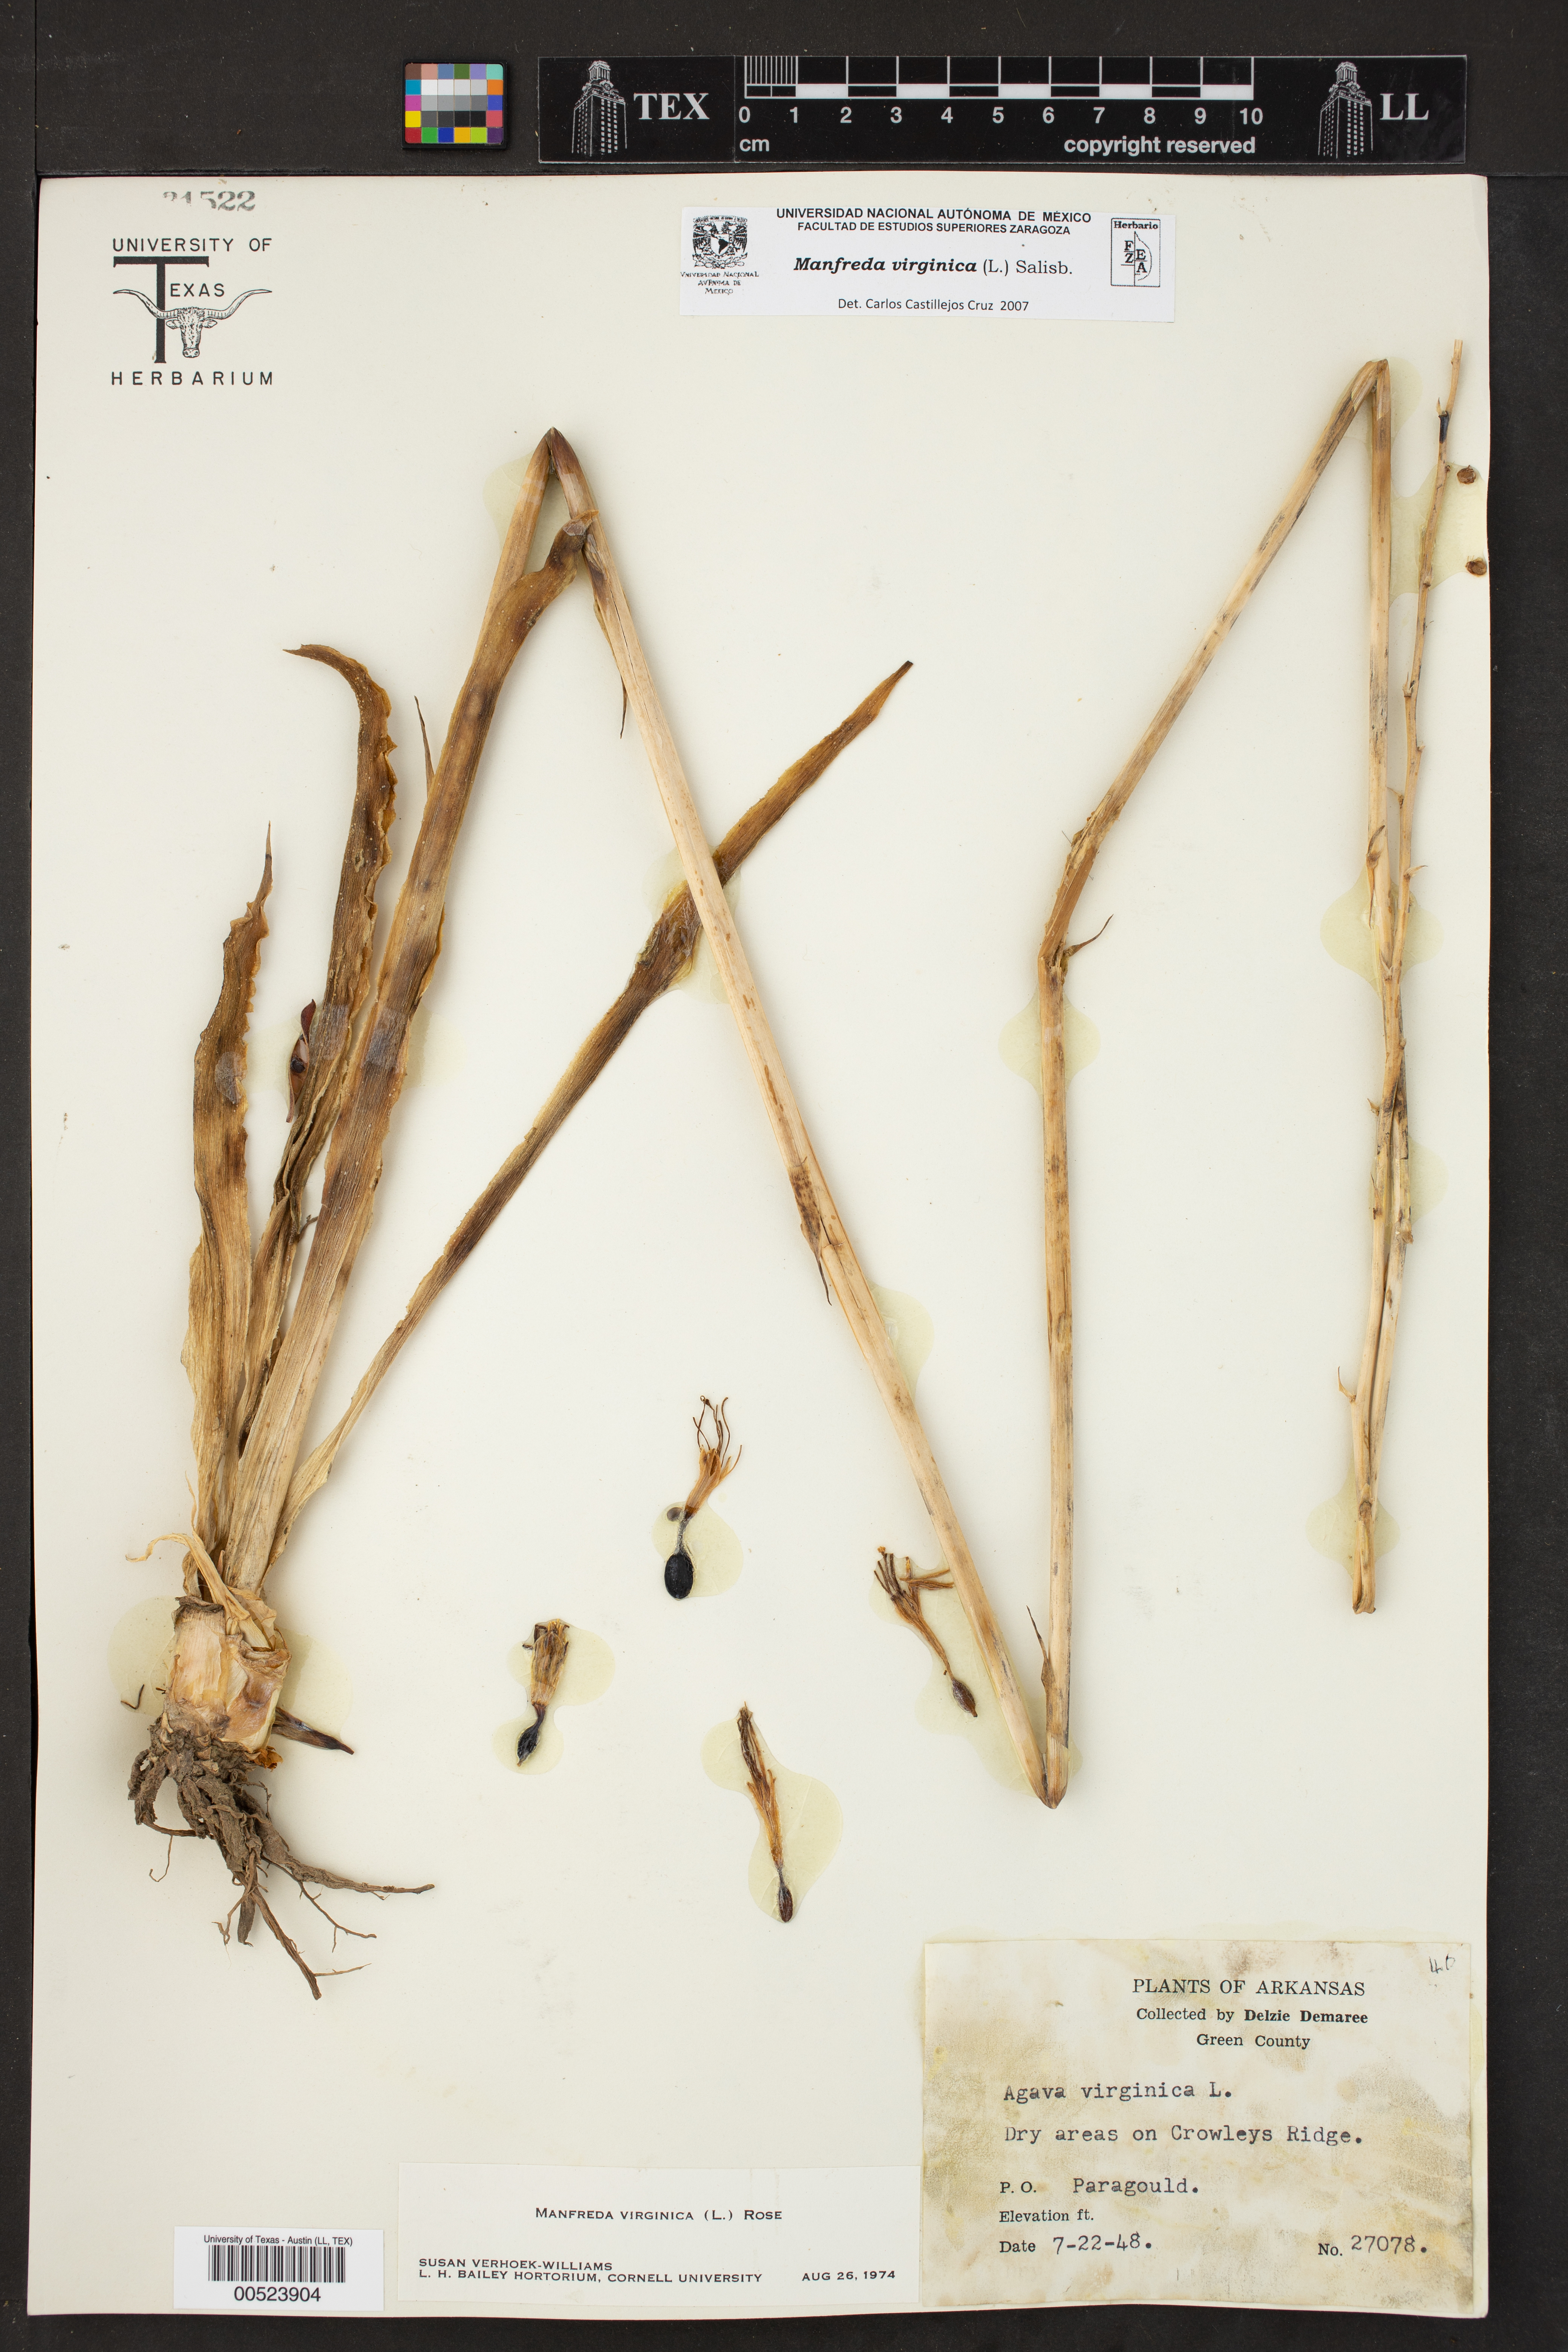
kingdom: Plantae
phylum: Tracheophyta
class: Liliopsida
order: Asparagales
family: Asparagaceae
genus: Agave
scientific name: Agave virginica
